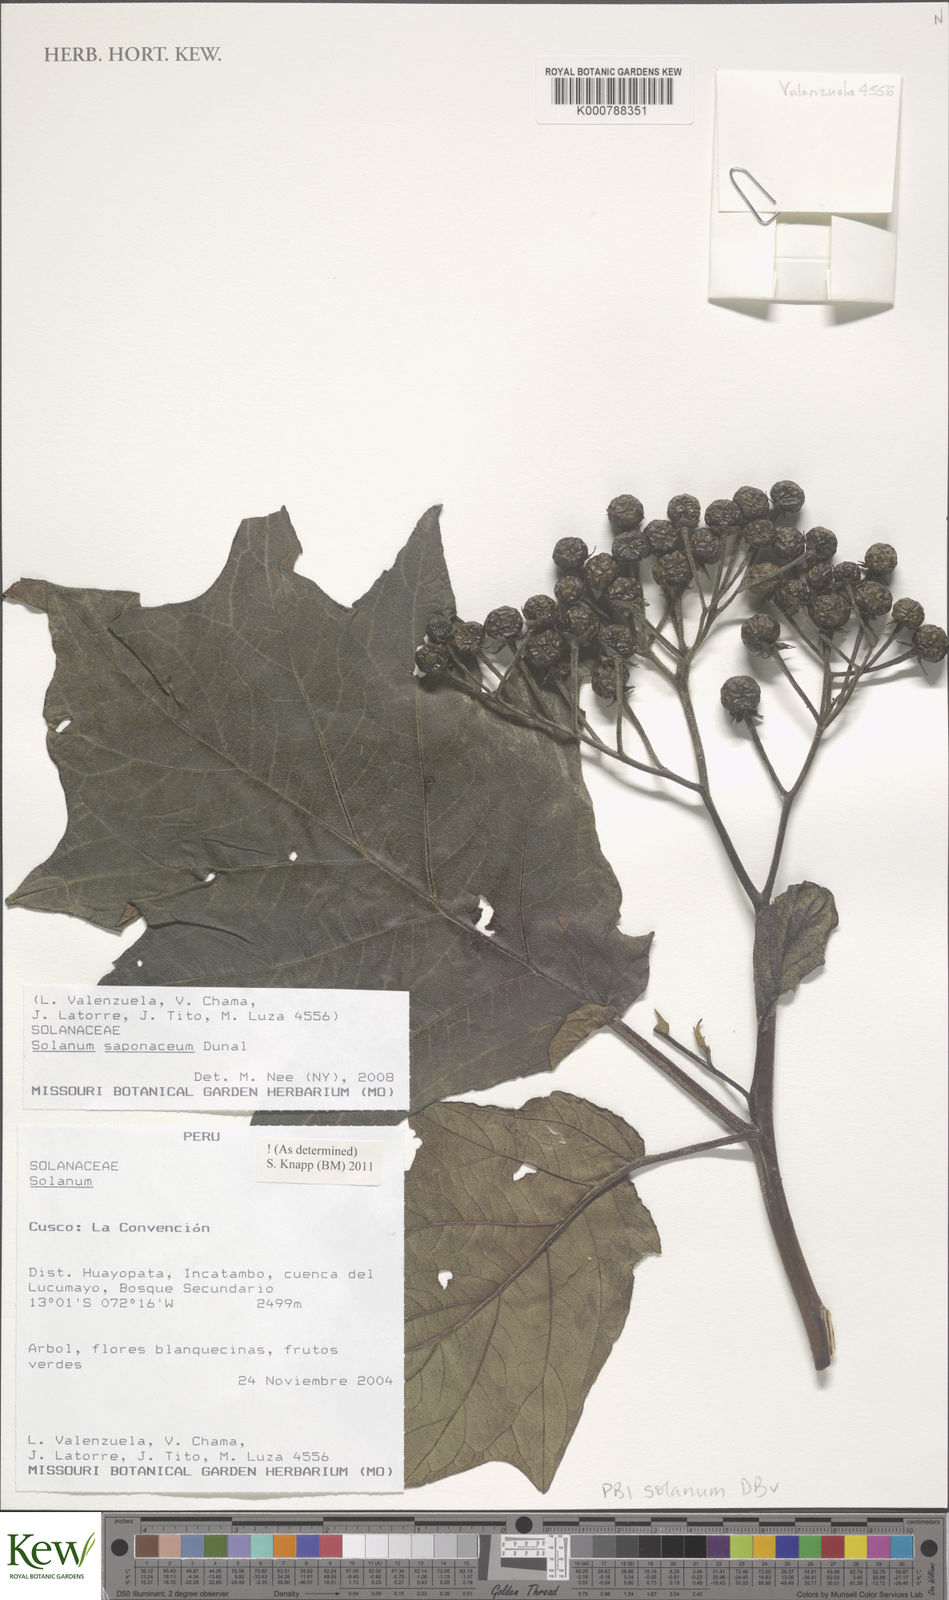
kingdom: Plantae
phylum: Tracheophyta
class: Magnoliopsida
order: Solanales
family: Solanaceae
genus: Solanum
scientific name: Solanum saponaceum
